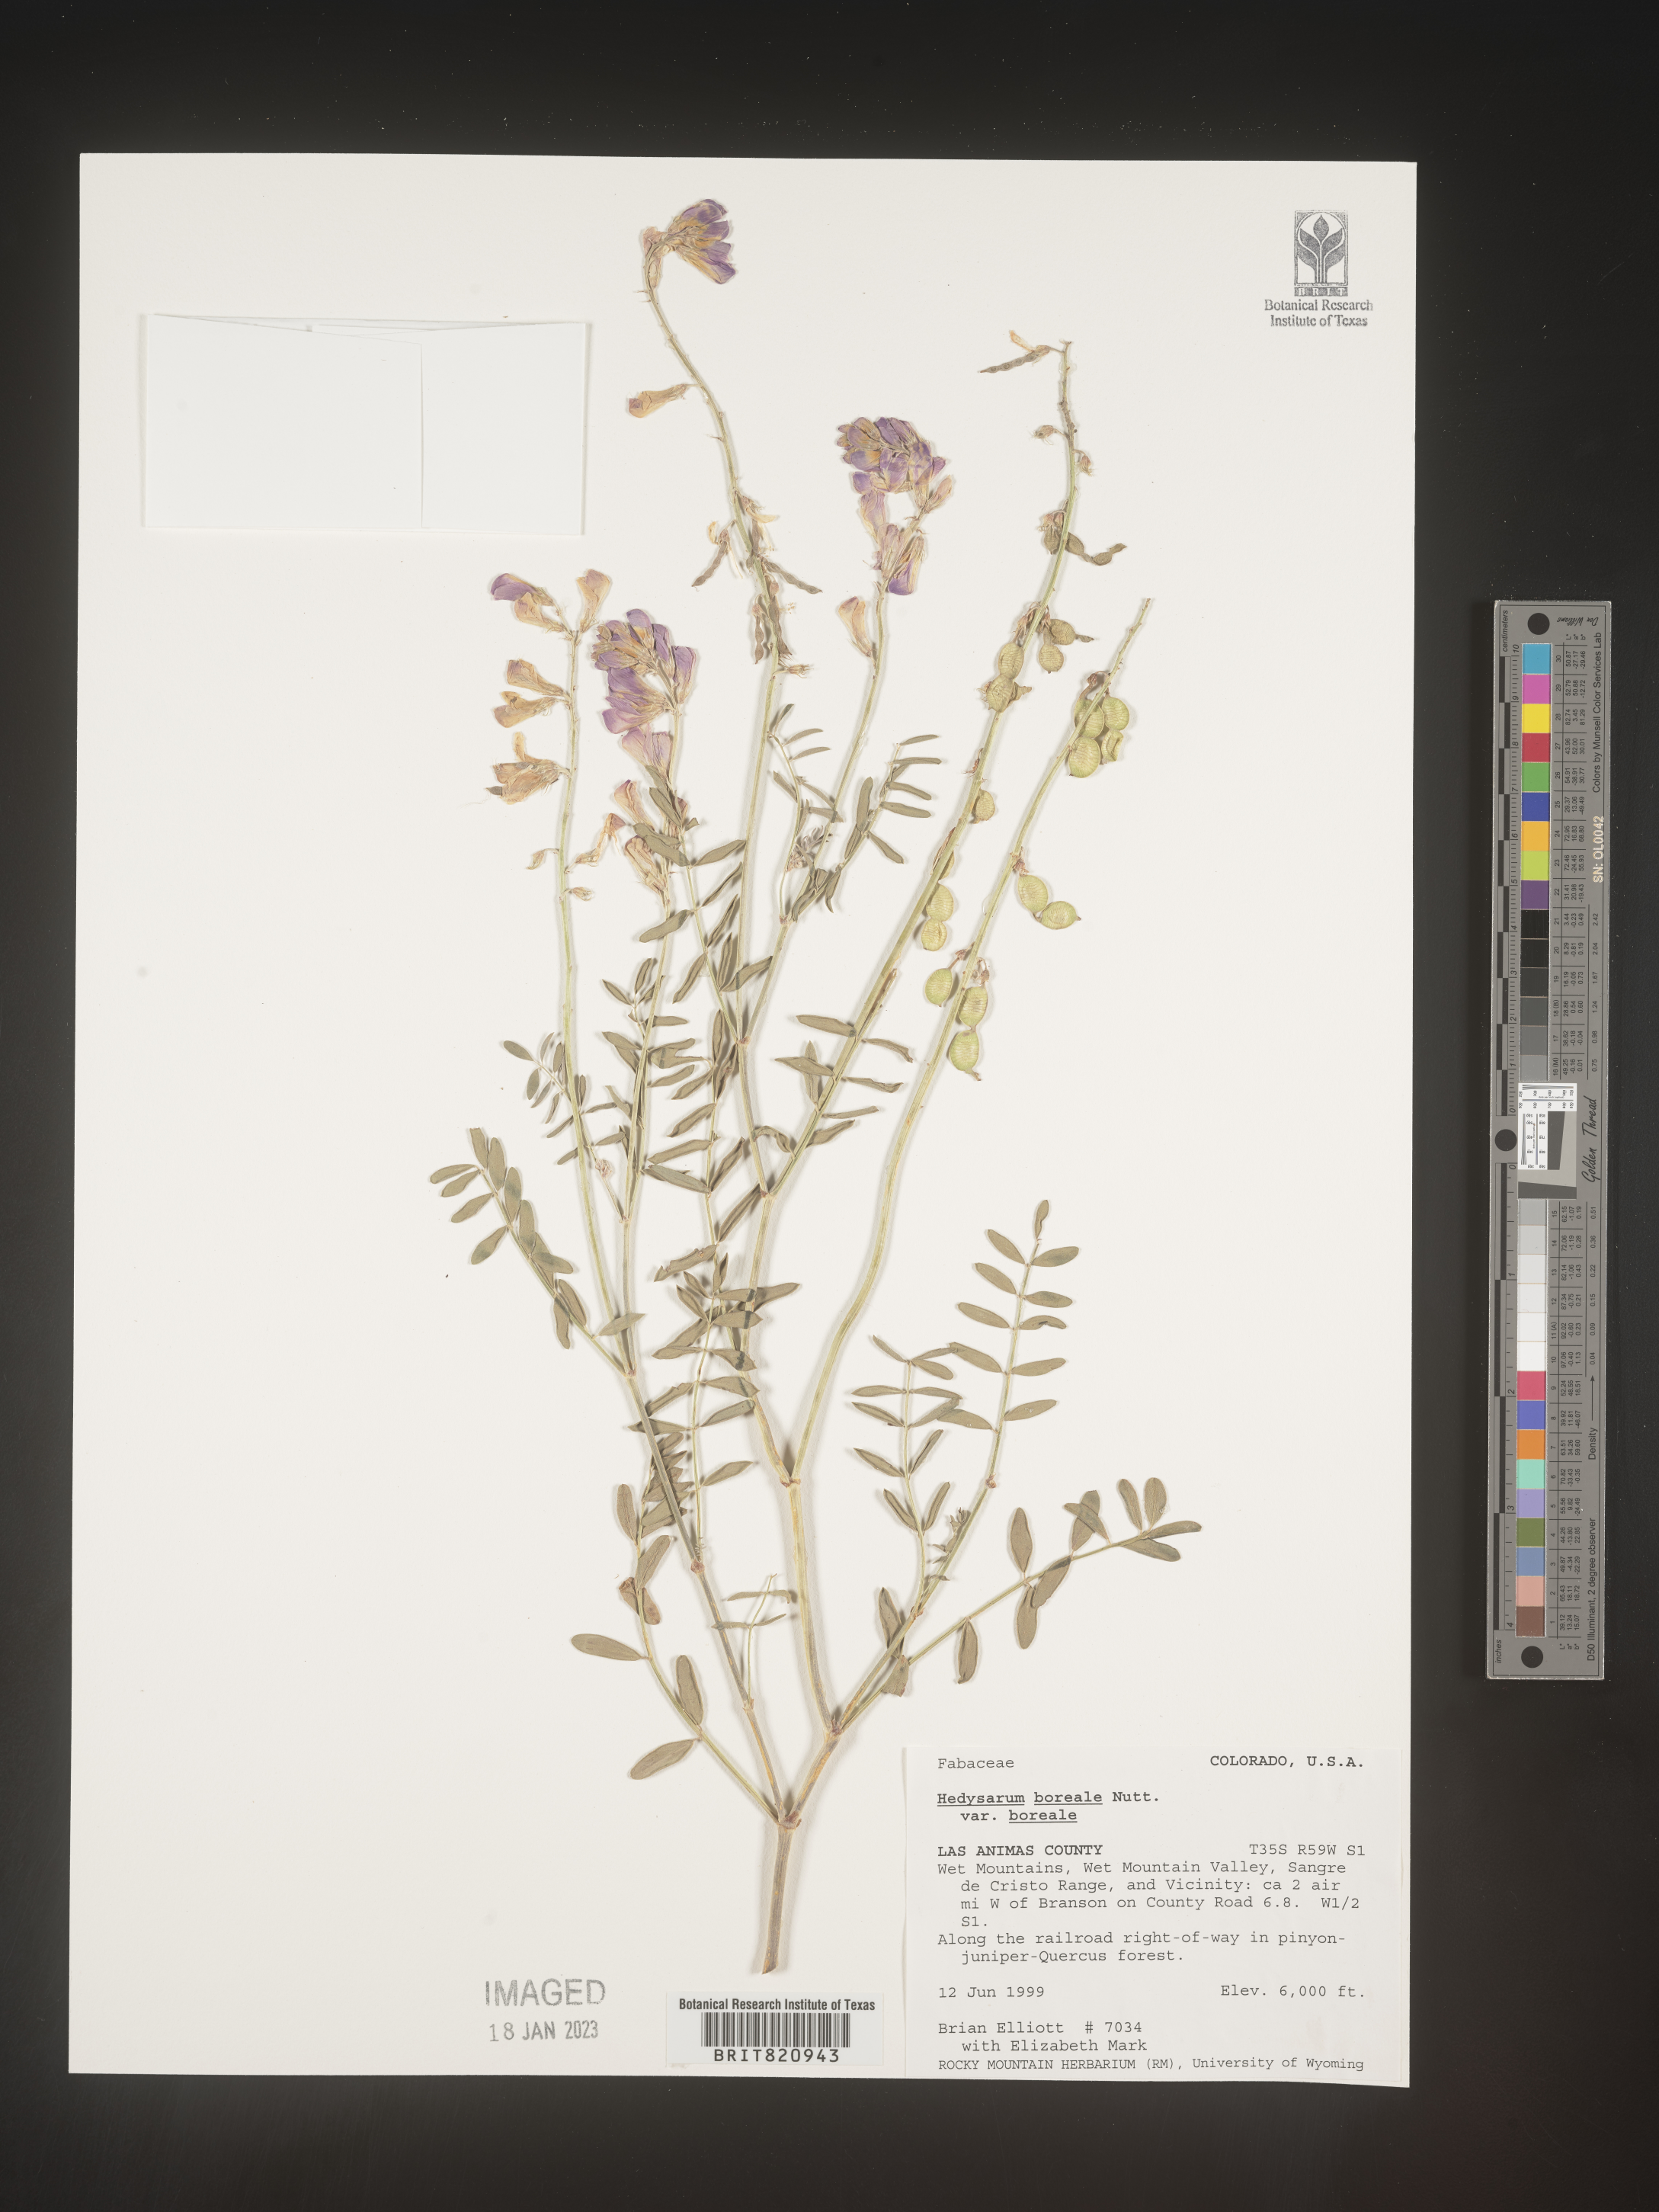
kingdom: Plantae
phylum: Tracheophyta
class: Magnoliopsida
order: Fabales
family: Fabaceae
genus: Hedysarum
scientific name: Hedysarum boreale
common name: Northern sweet-vetch
